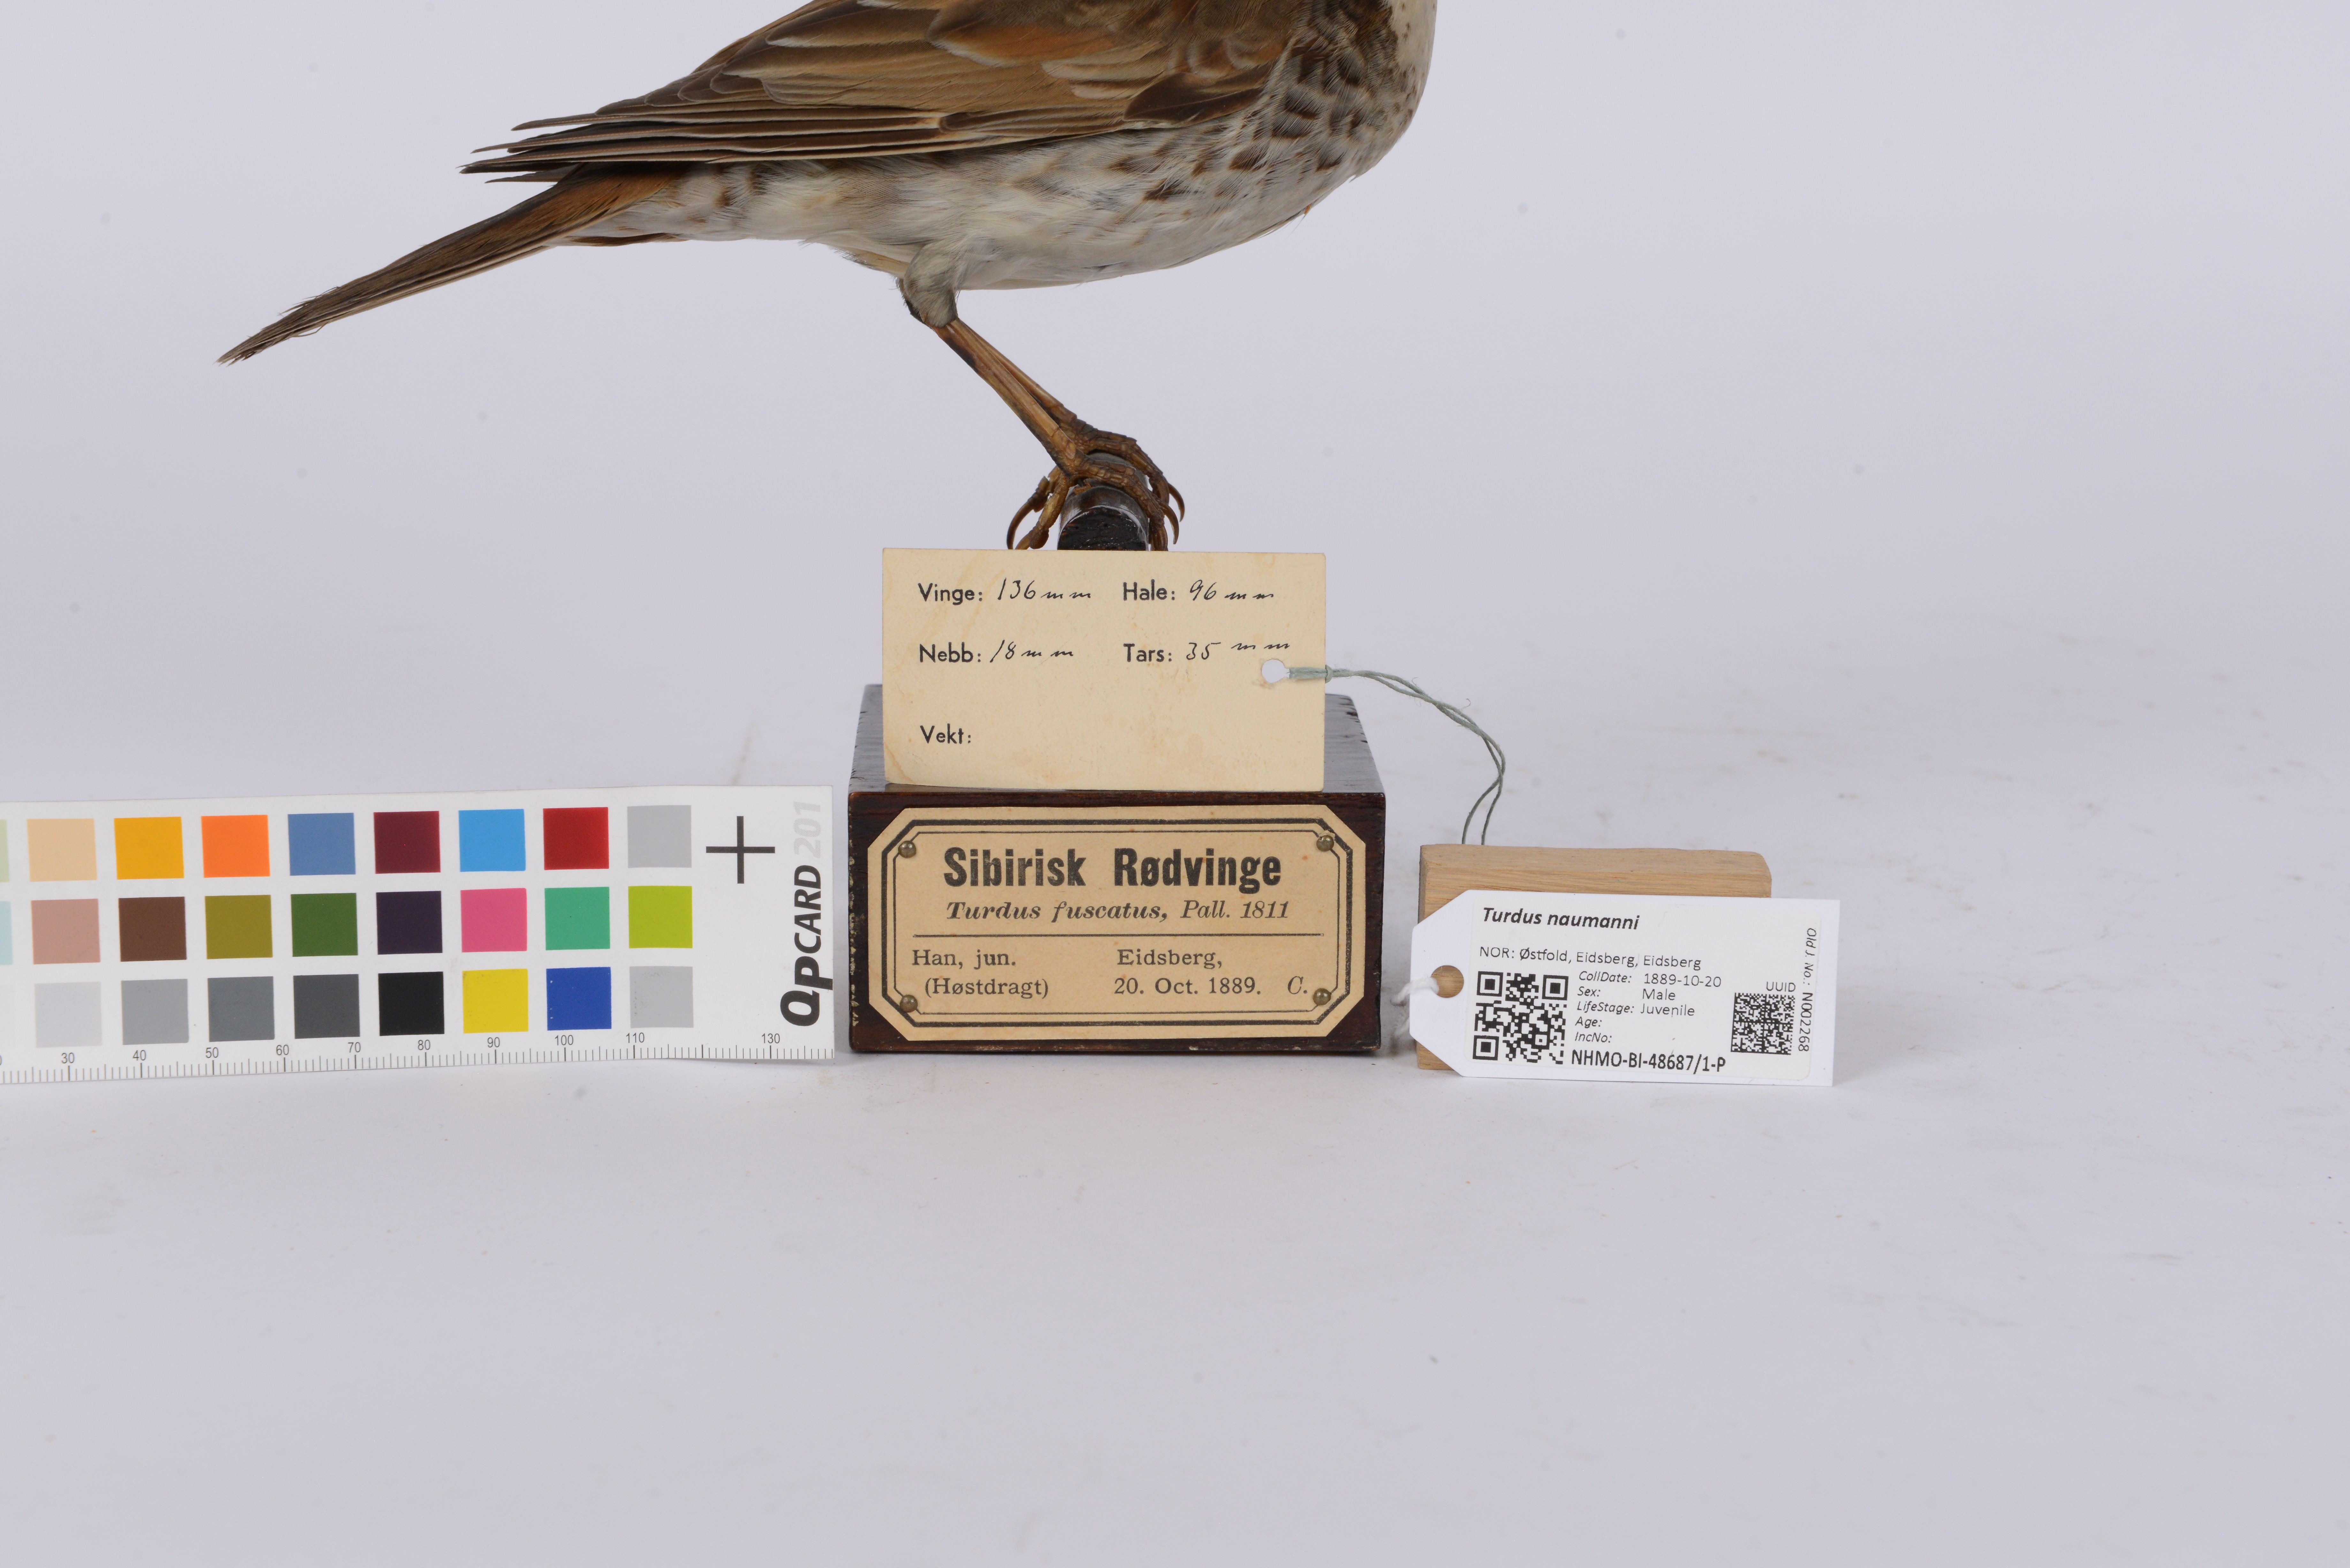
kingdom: Animalia
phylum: Chordata
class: Aves
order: Passeriformes
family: Turdidae
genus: Turdus
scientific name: Turdus naumanni
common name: Naumann's thrush
